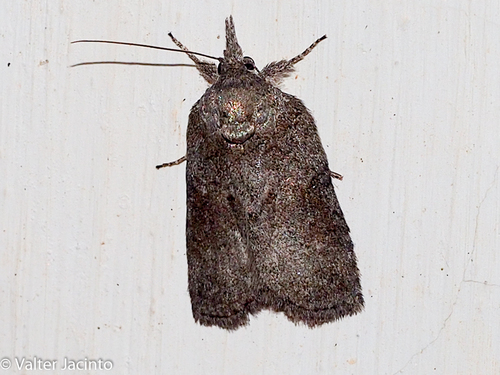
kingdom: Animalia
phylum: Arthropoda
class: Insecta
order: Lepidoptera
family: Nolidae
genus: Nycteola
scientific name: Nycteola columbana
